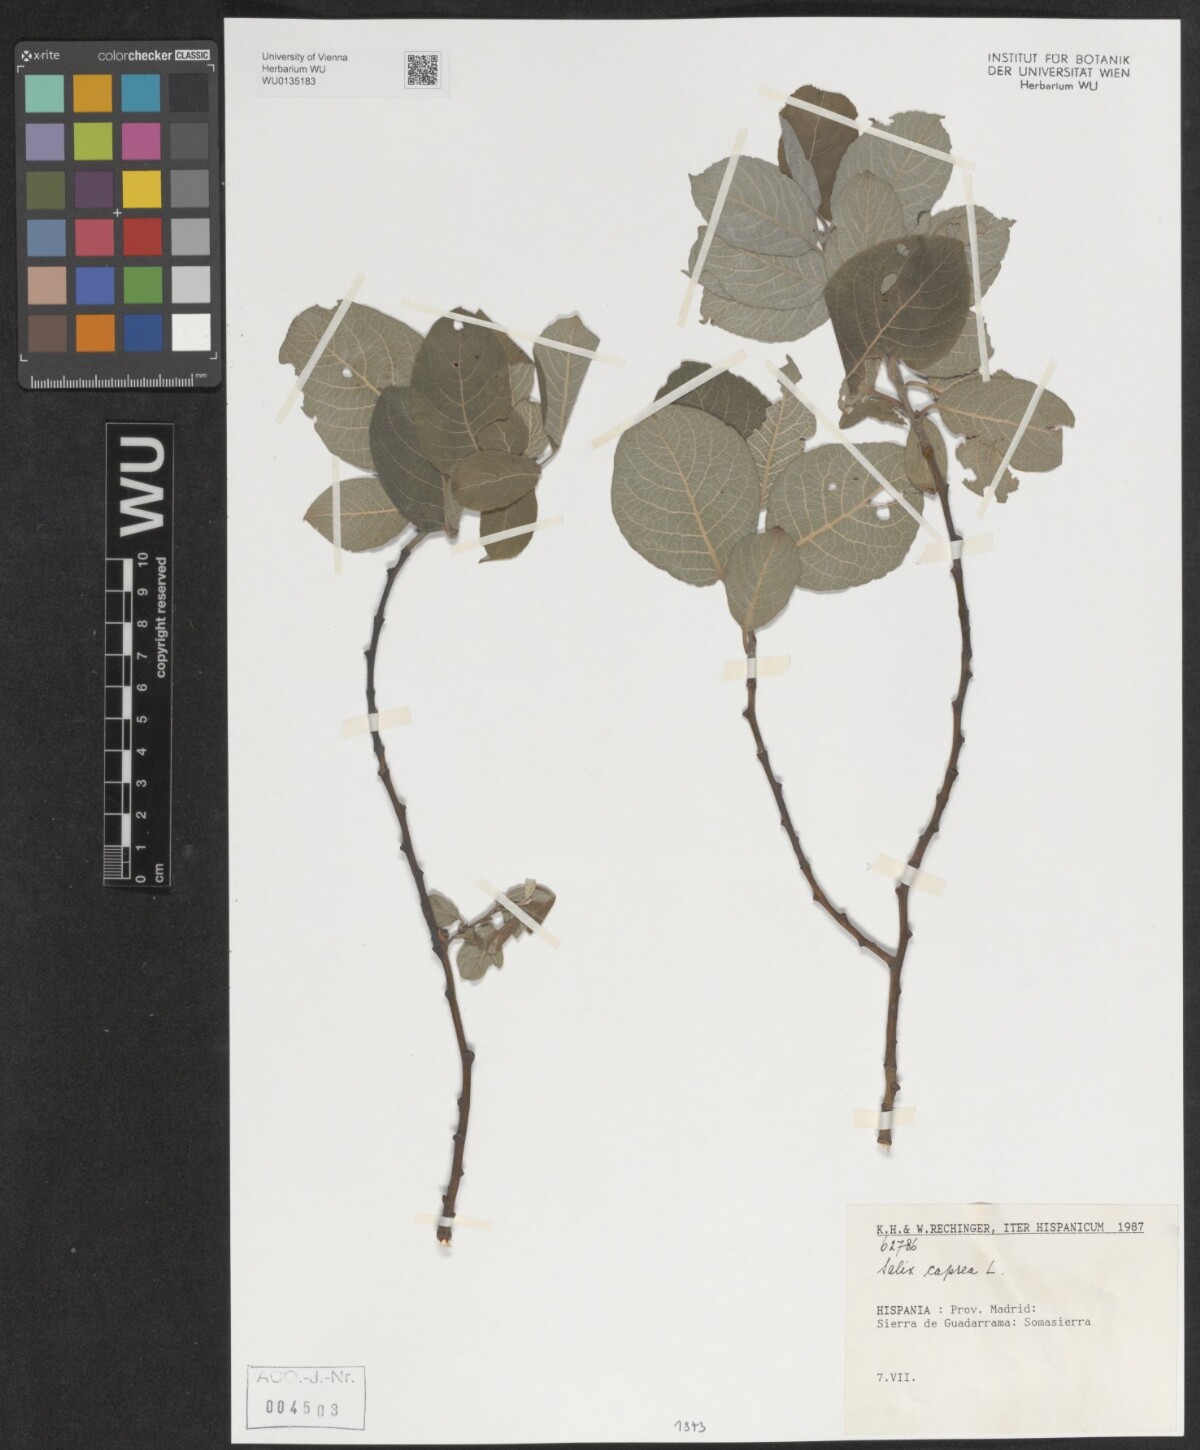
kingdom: Plantae
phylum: Tracheophyta
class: Magnoliopsida
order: Malpighiales
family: Salicaceae
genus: Salix
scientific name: Salix caprea
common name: Goat willow
